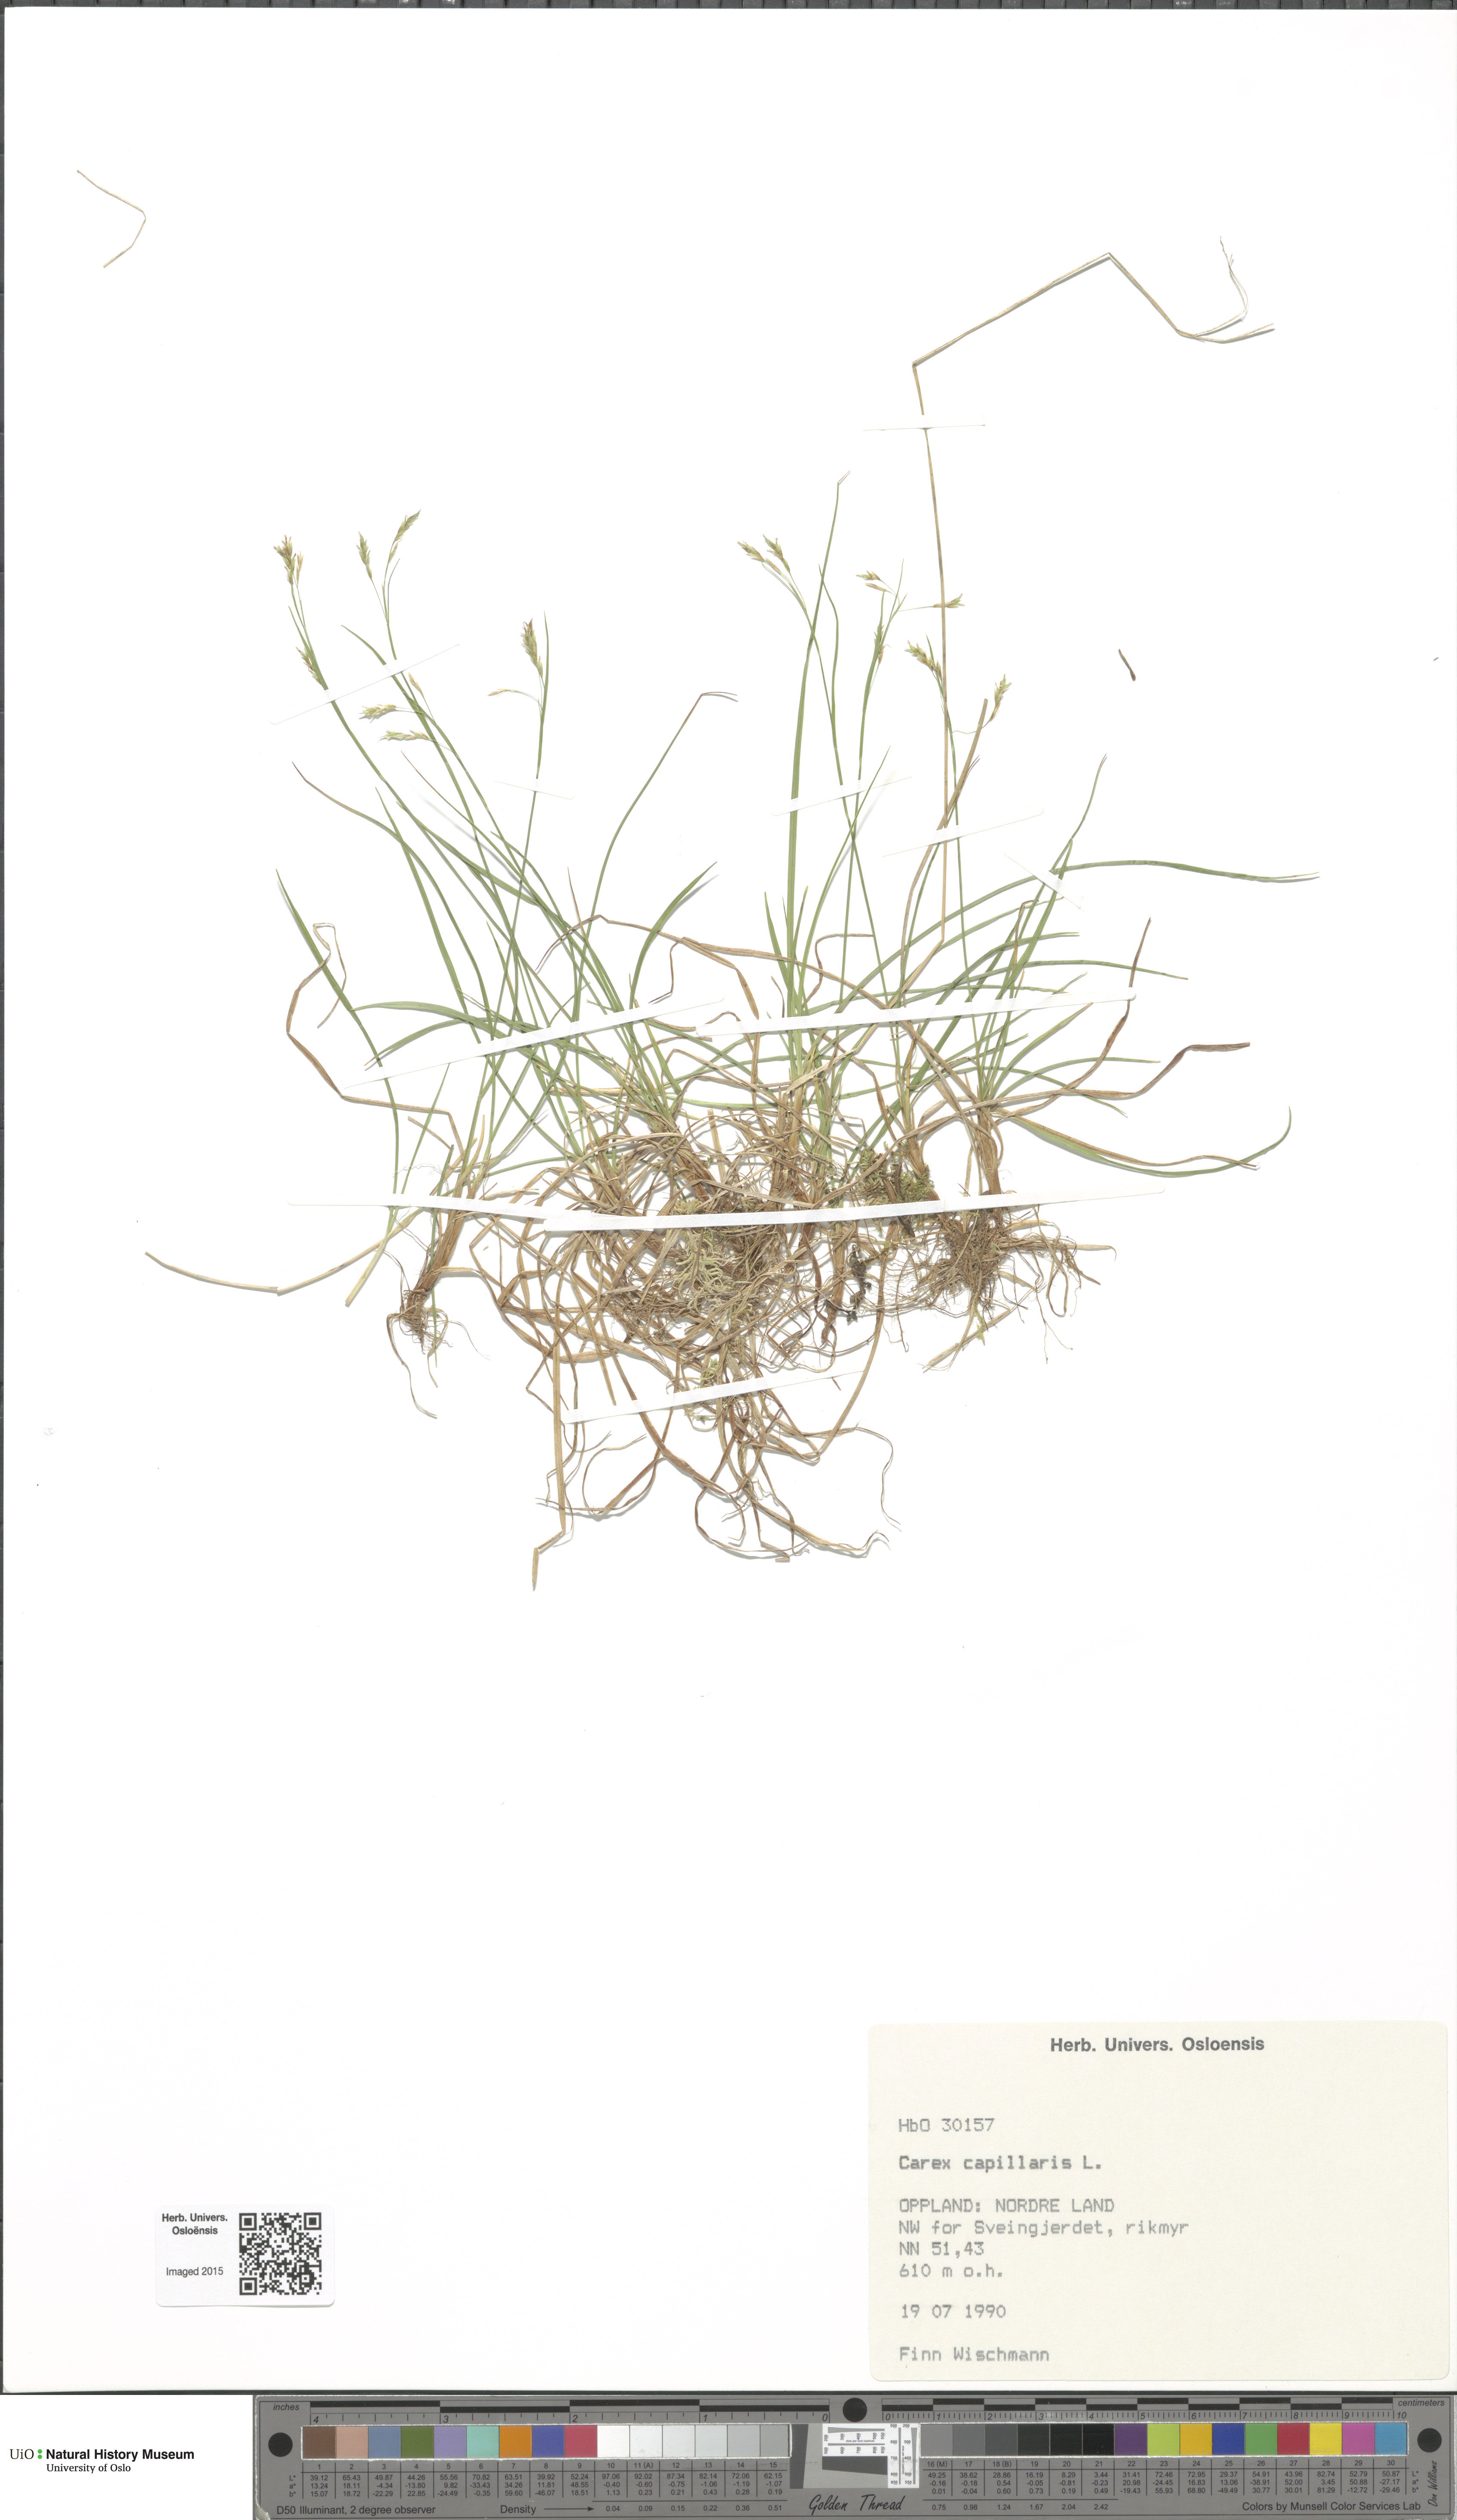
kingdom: Plantae
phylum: Tracheophyta
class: Liliopsida
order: Poales
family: Cyperaceae
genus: Carex
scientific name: Carex capillaris
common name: Hair sedge
